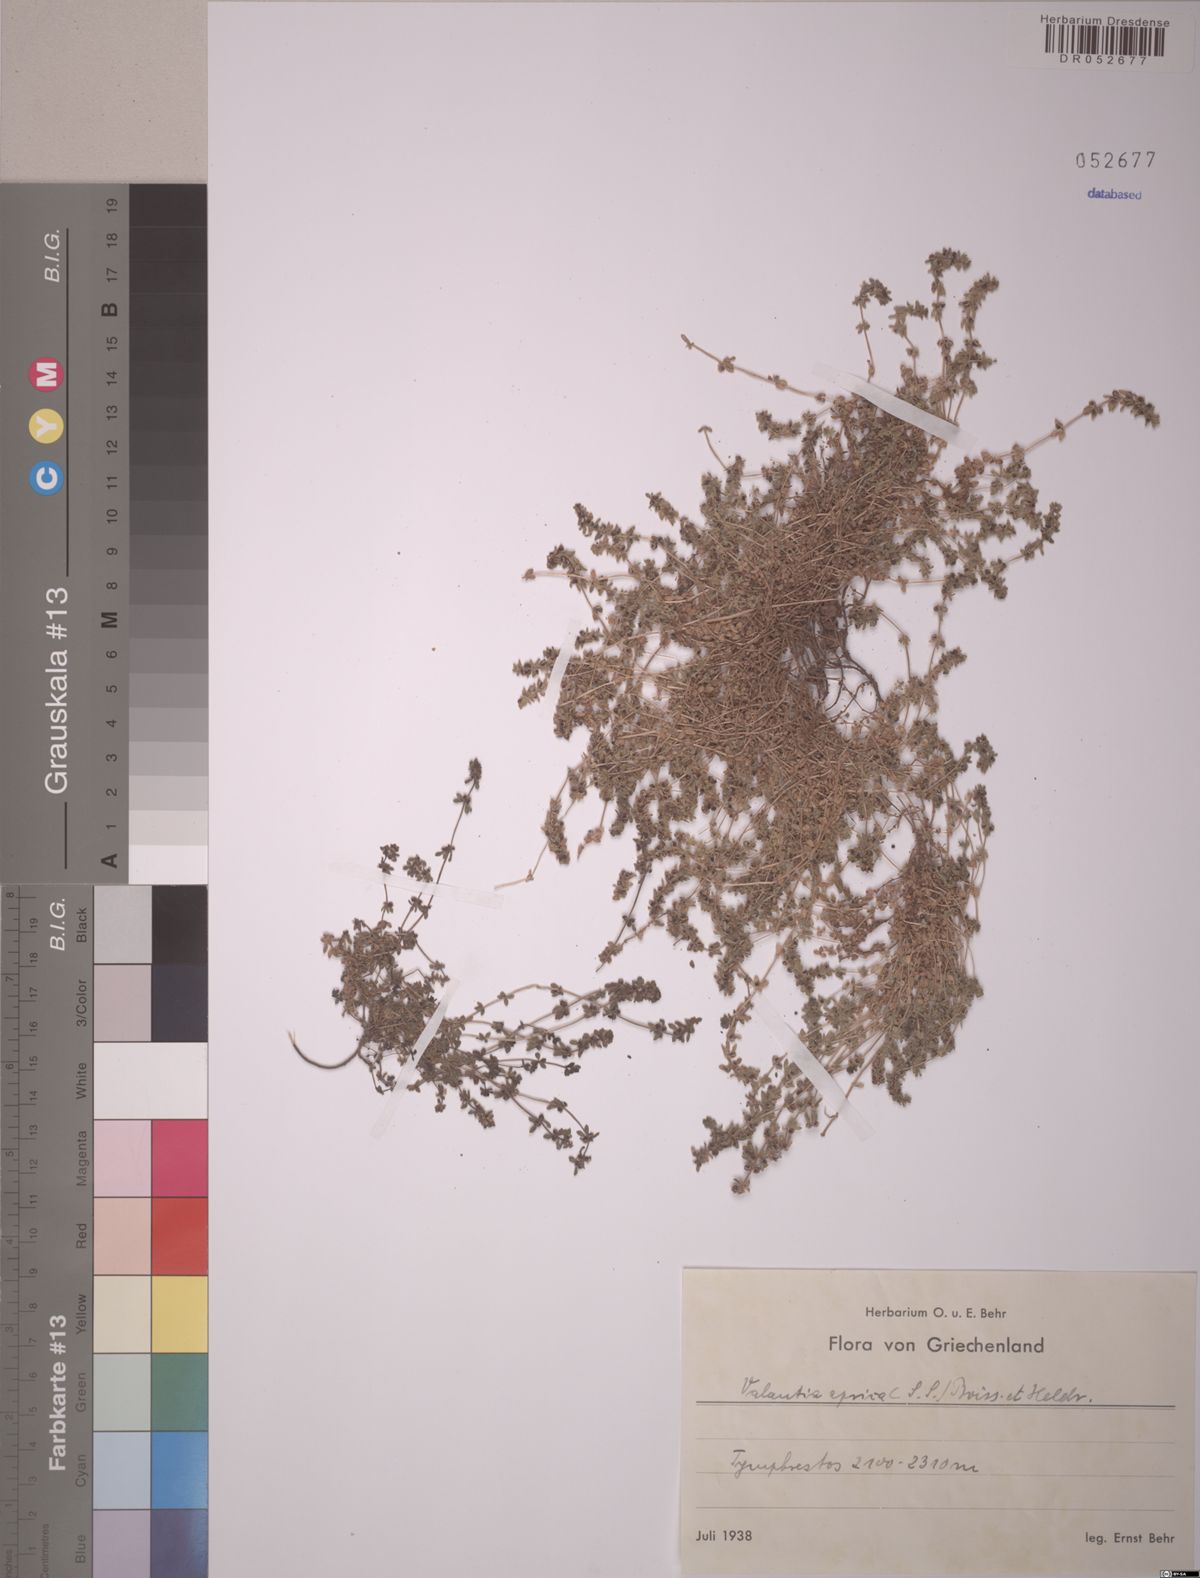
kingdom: Plantae
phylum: Tracheophyta
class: Magnoliopsida
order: Gentianales
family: Rubiaceae
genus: Valantia
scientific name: Valantia aprica
